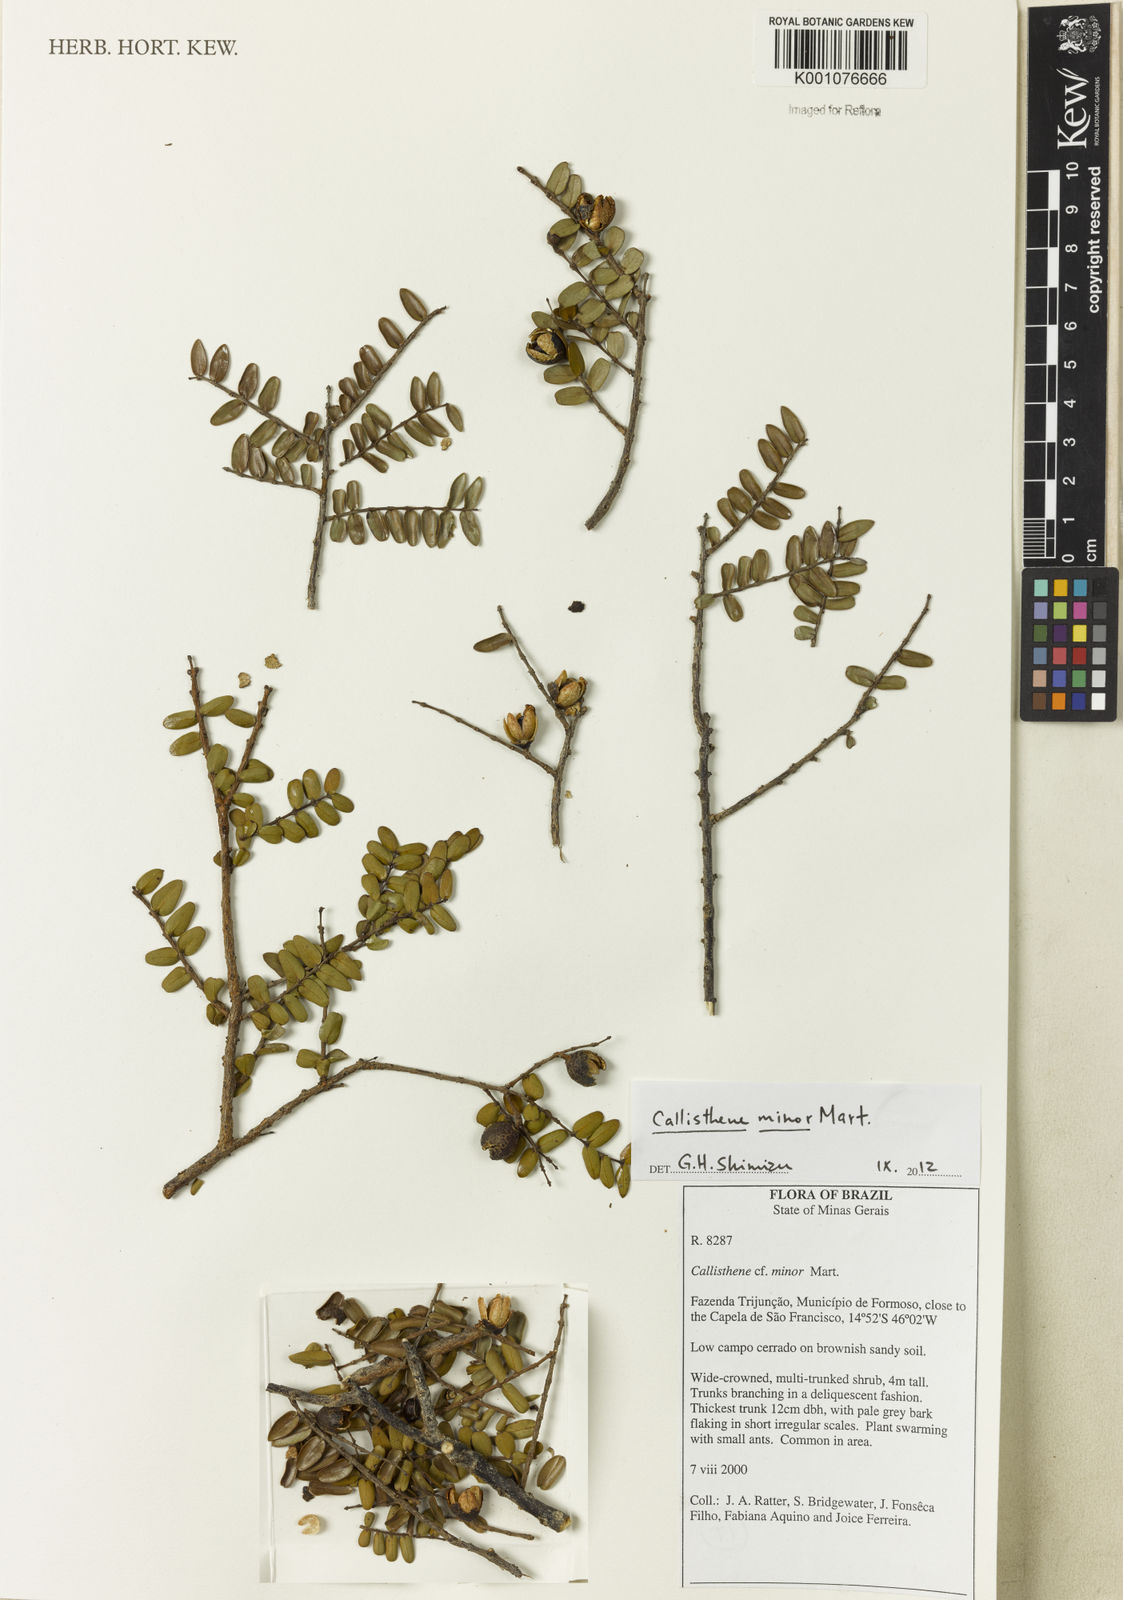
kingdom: Plantae
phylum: Tracheophyta
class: Magnoliopsida
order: Myrtales
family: Vochysiaceae
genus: Callisthene
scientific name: Callisthene minor
